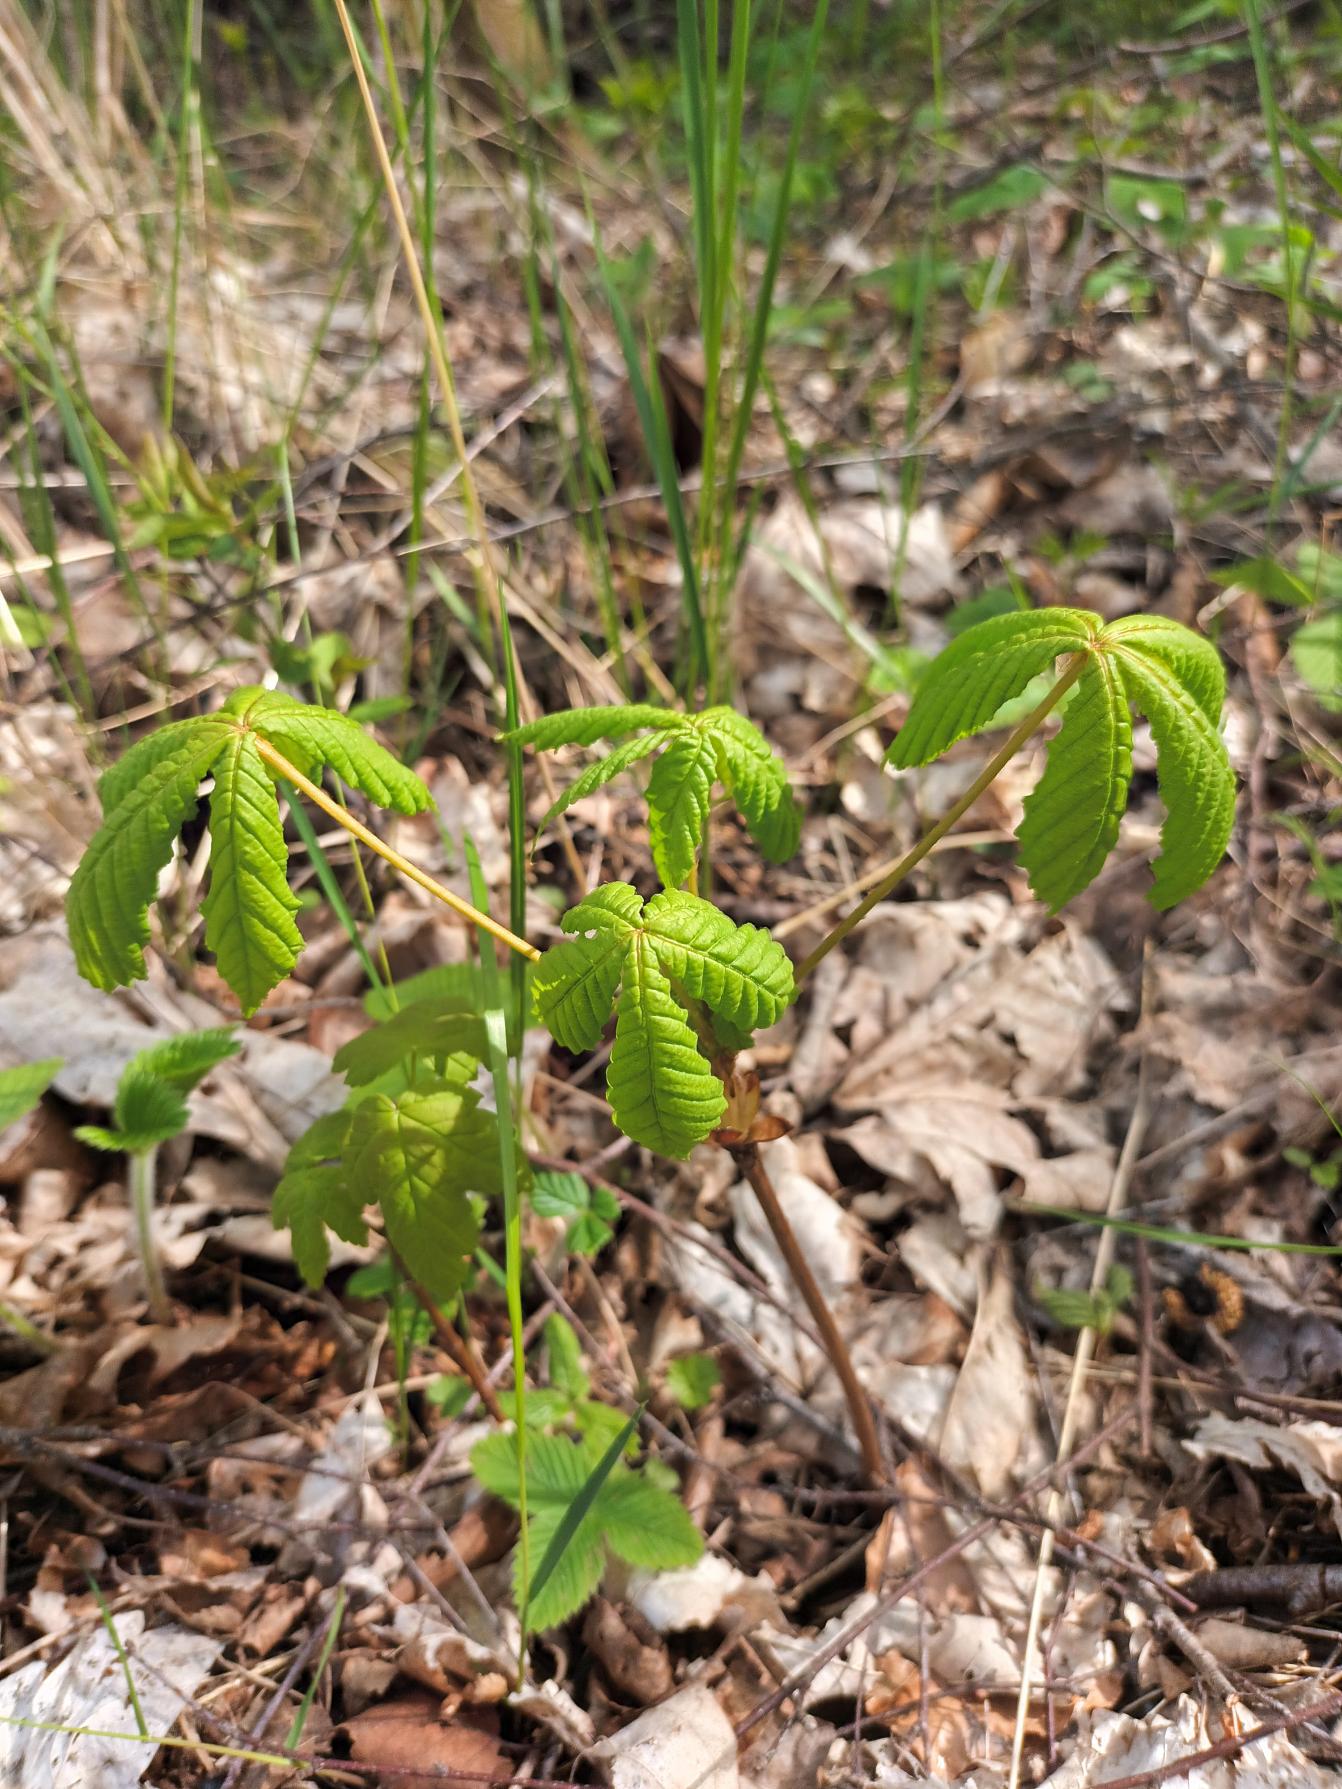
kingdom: Plantae
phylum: Tracheophyta
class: Magnoliopsida
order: Sapindales
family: Sapindaceae
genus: Aesculus
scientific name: Aesculus hippocastanum
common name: Hestekastanie
